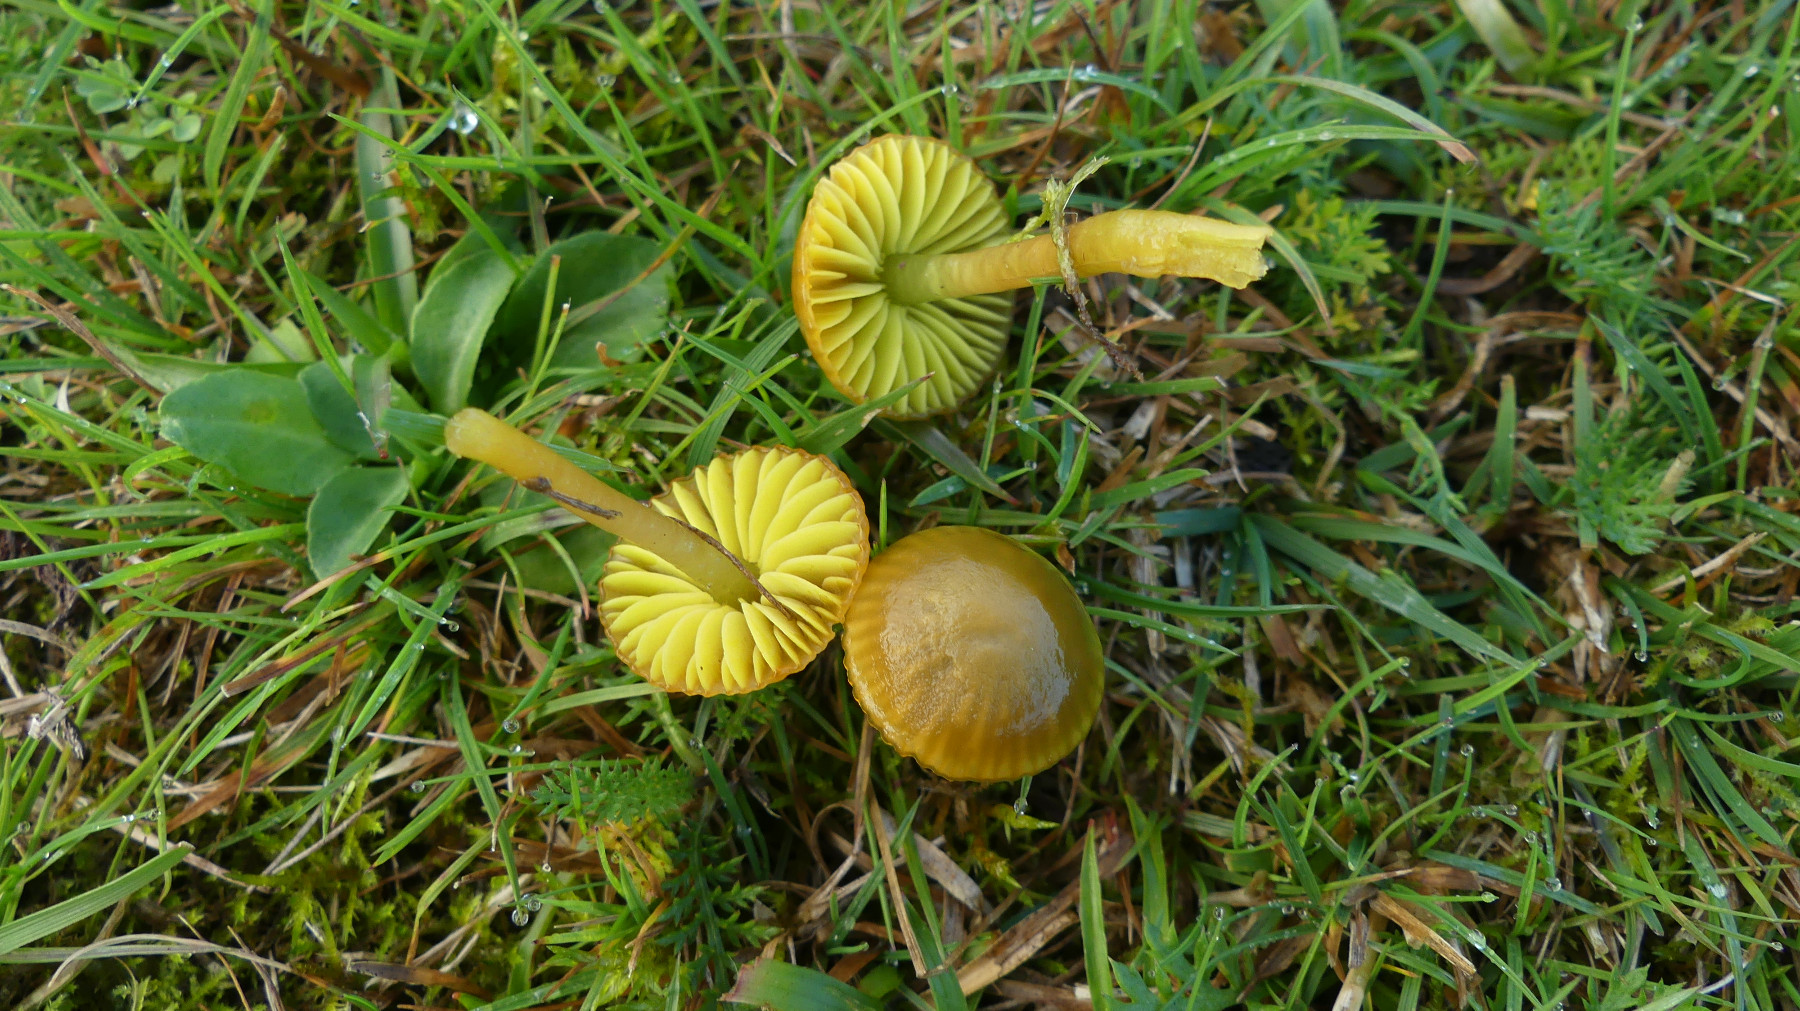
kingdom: Fungi
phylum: Basidiomycota
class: Agaricomycetes
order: Agaricales
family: Hygrophoraceae
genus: Gliophorus
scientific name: Gliophorus psittacinus
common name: papegøje-vokshat
